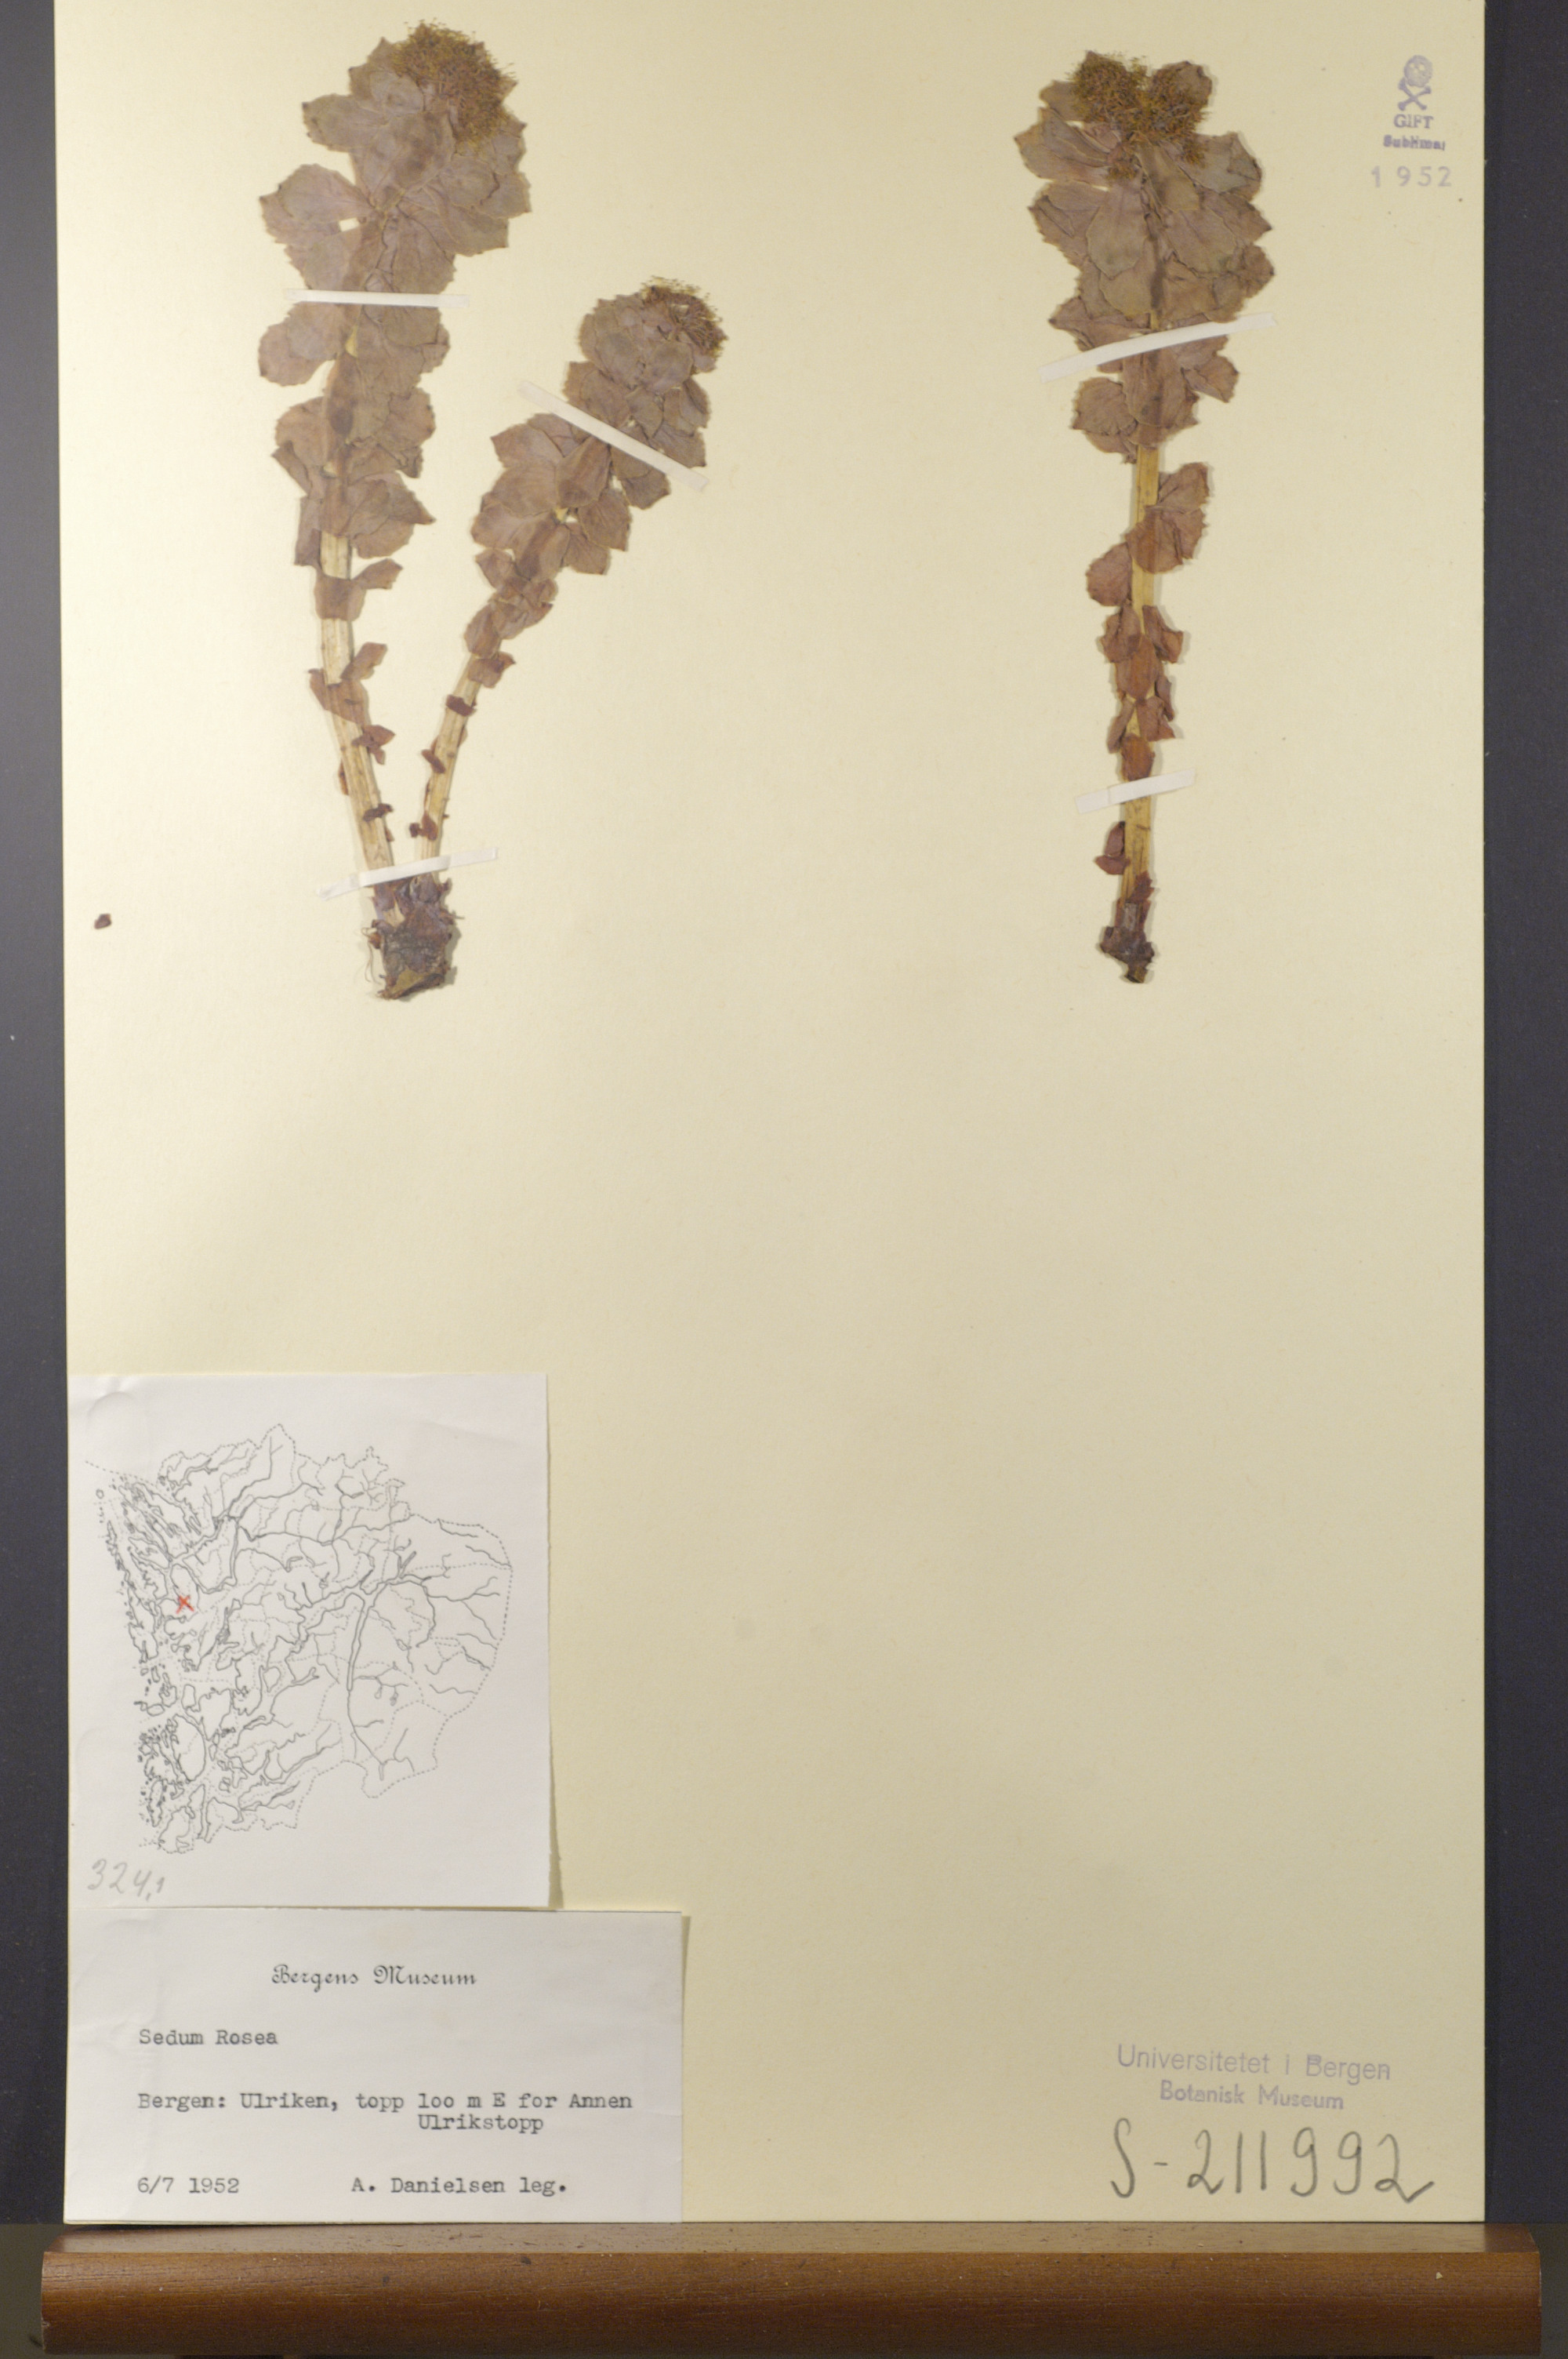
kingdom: Plantae
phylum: Tracheophyta
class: Magnoliopsida
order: Saxifragales
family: Crassulaceae
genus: Rhodiola
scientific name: Rhodiola rosea
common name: Roseroot
